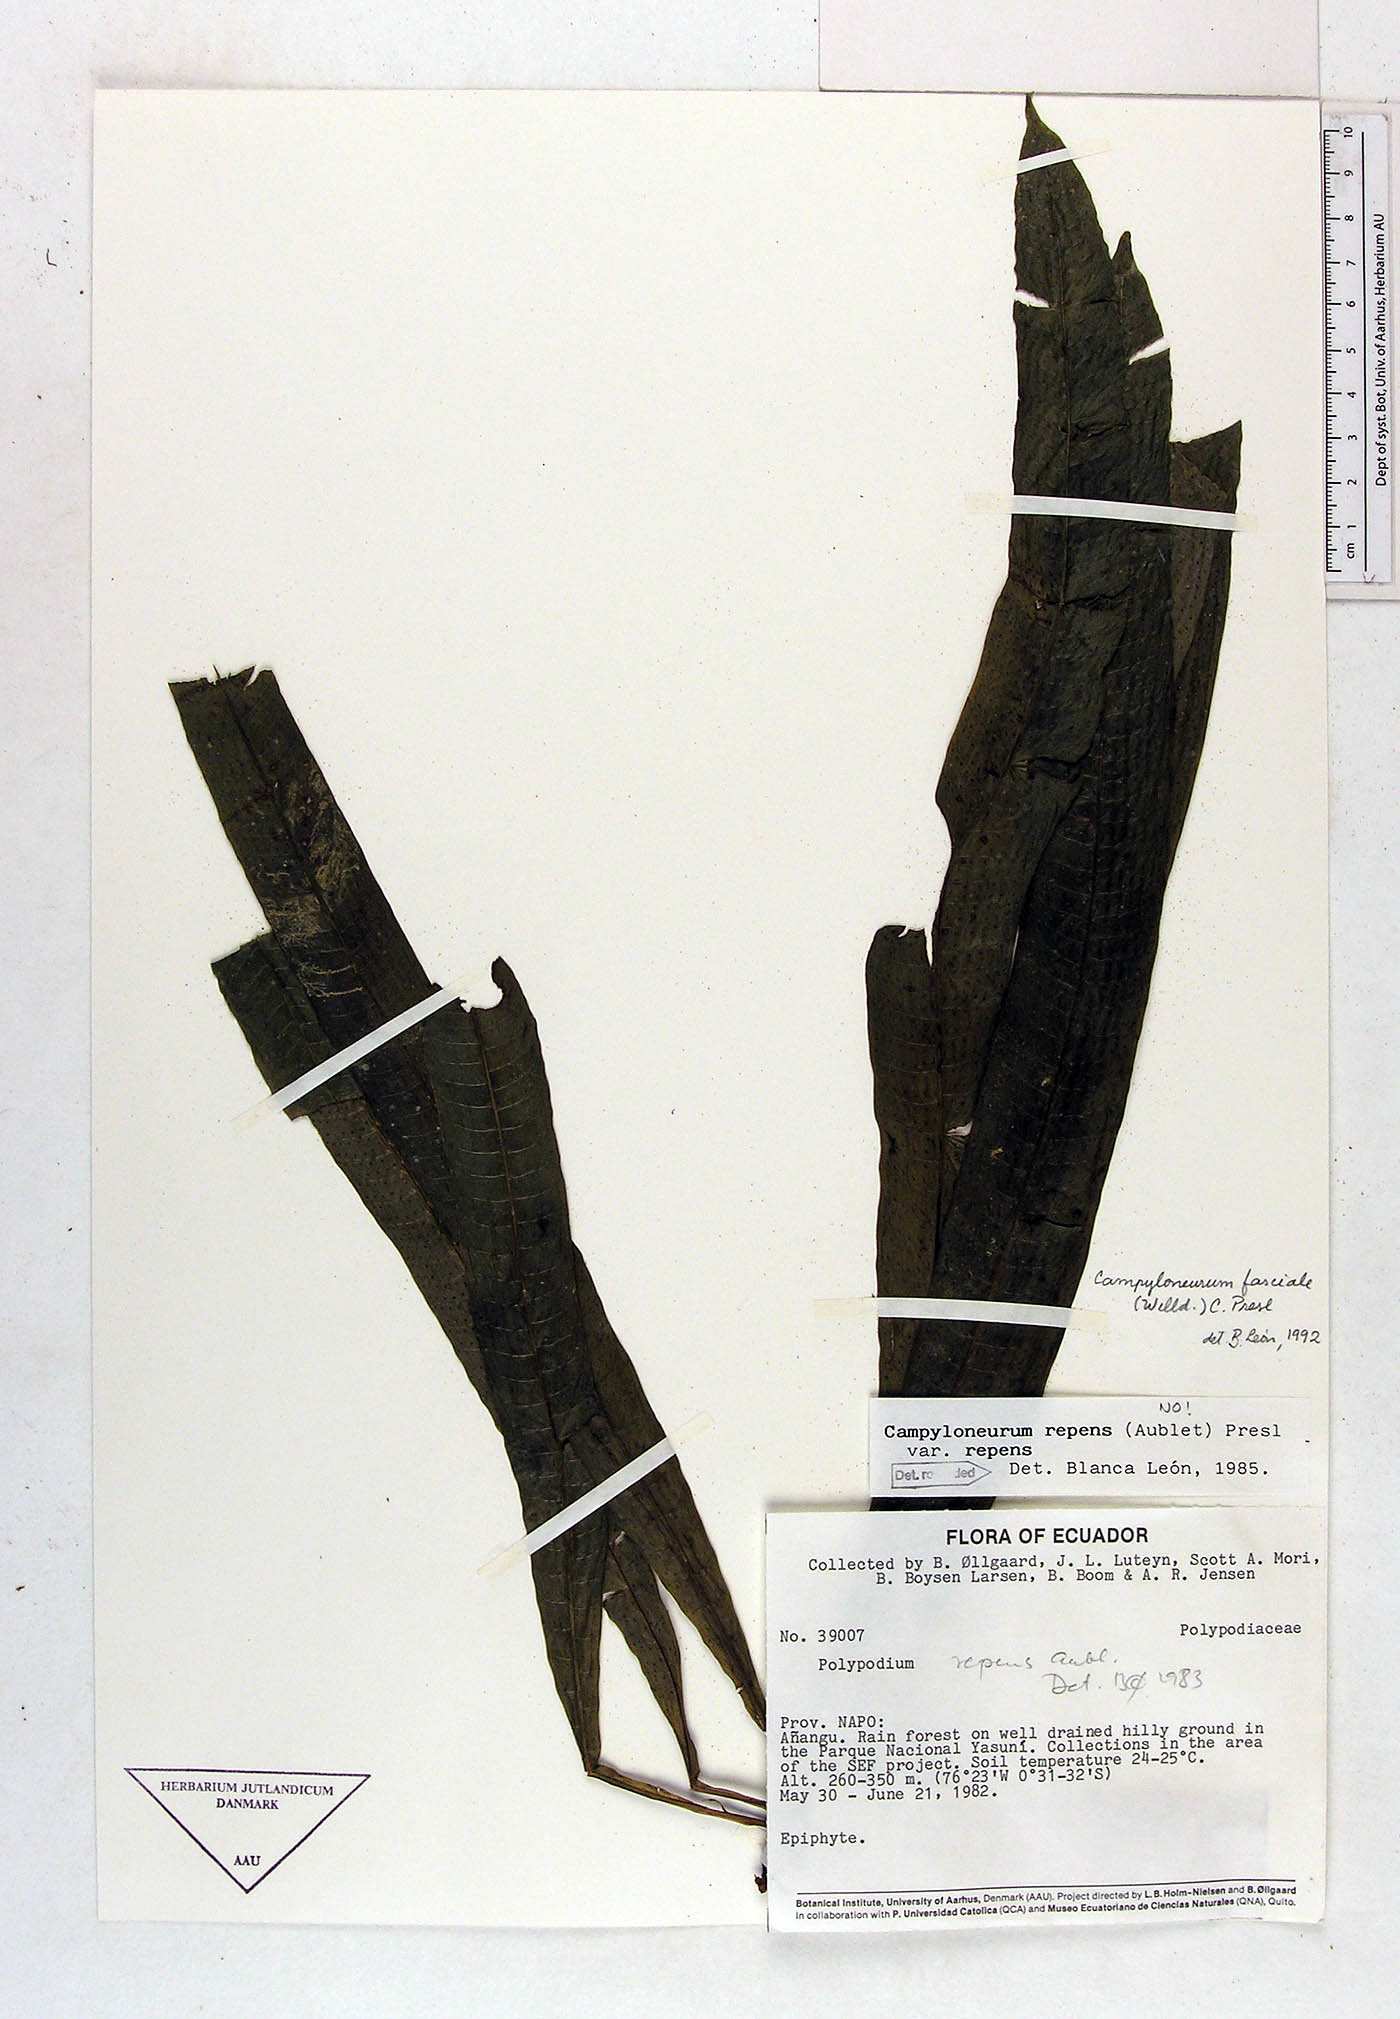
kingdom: Plantae
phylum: Tracheophyta
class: Polypodiopsida
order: Polypodiales
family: Polypodiaceae
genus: Campyloneurum
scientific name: Campyloneurum repens
